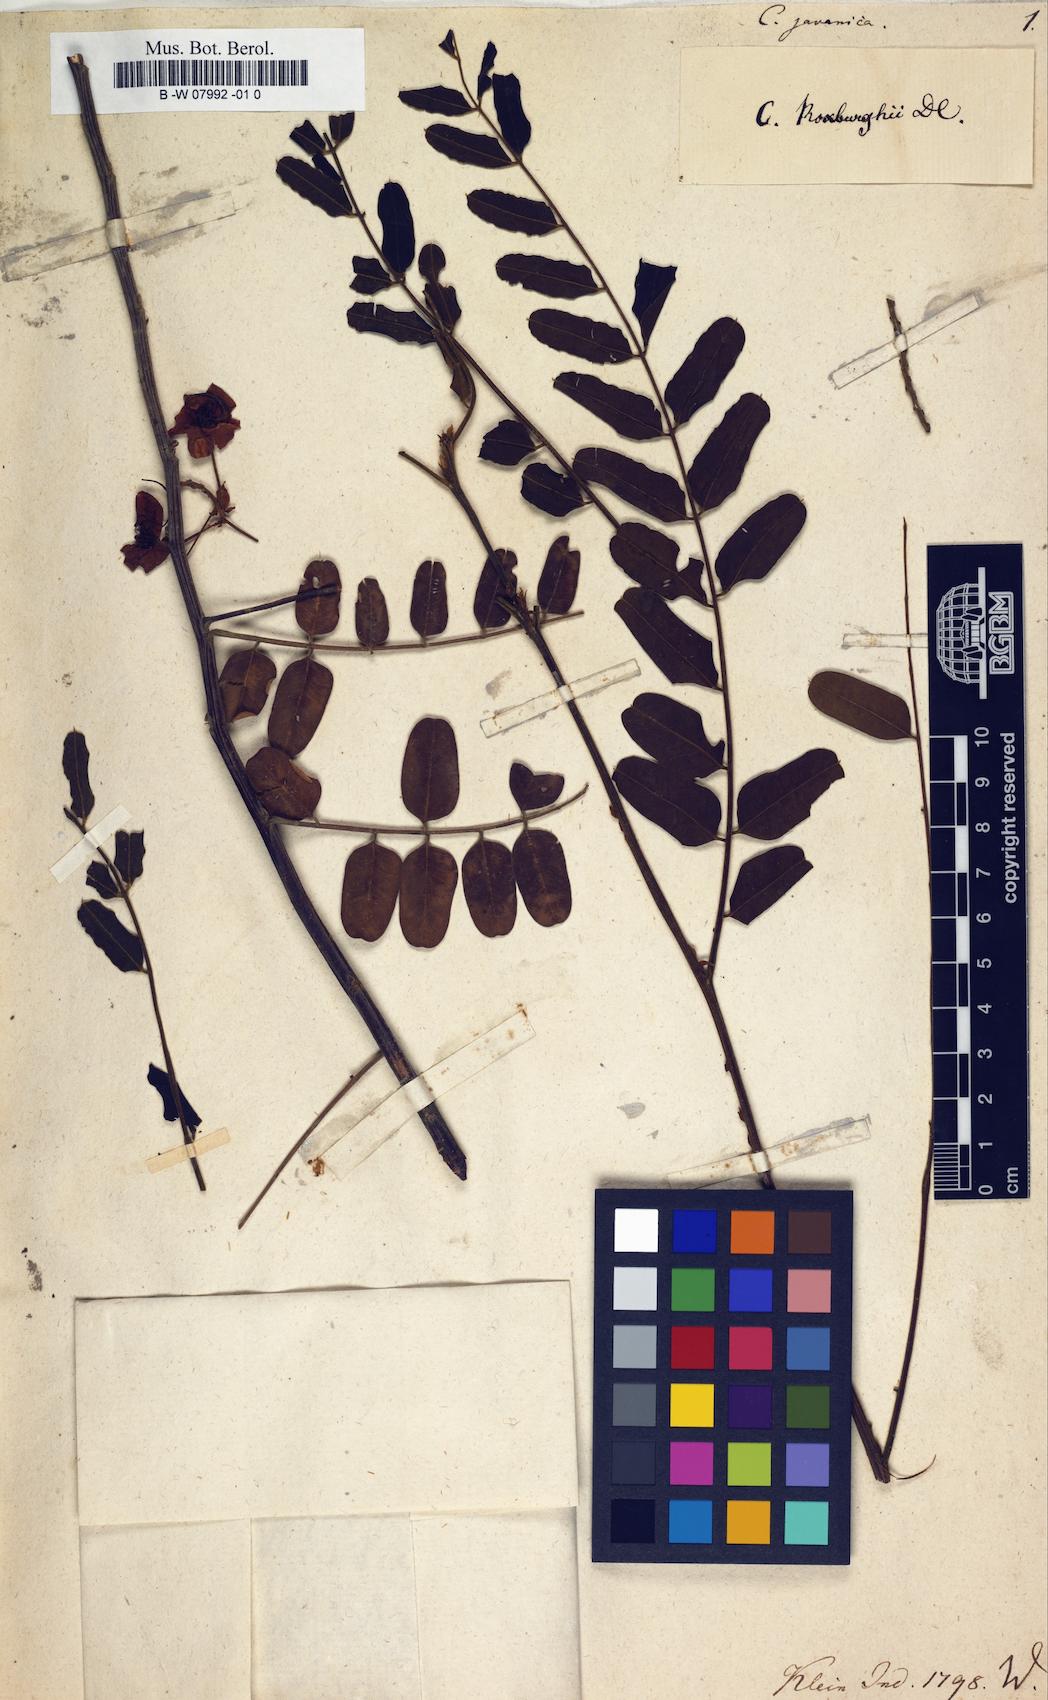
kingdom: Plantae
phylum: Tracheophyta
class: Magnoliopsida
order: Fabales
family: Fabaceae
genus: Cassia
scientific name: Cassia javanica
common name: Apple blossom
